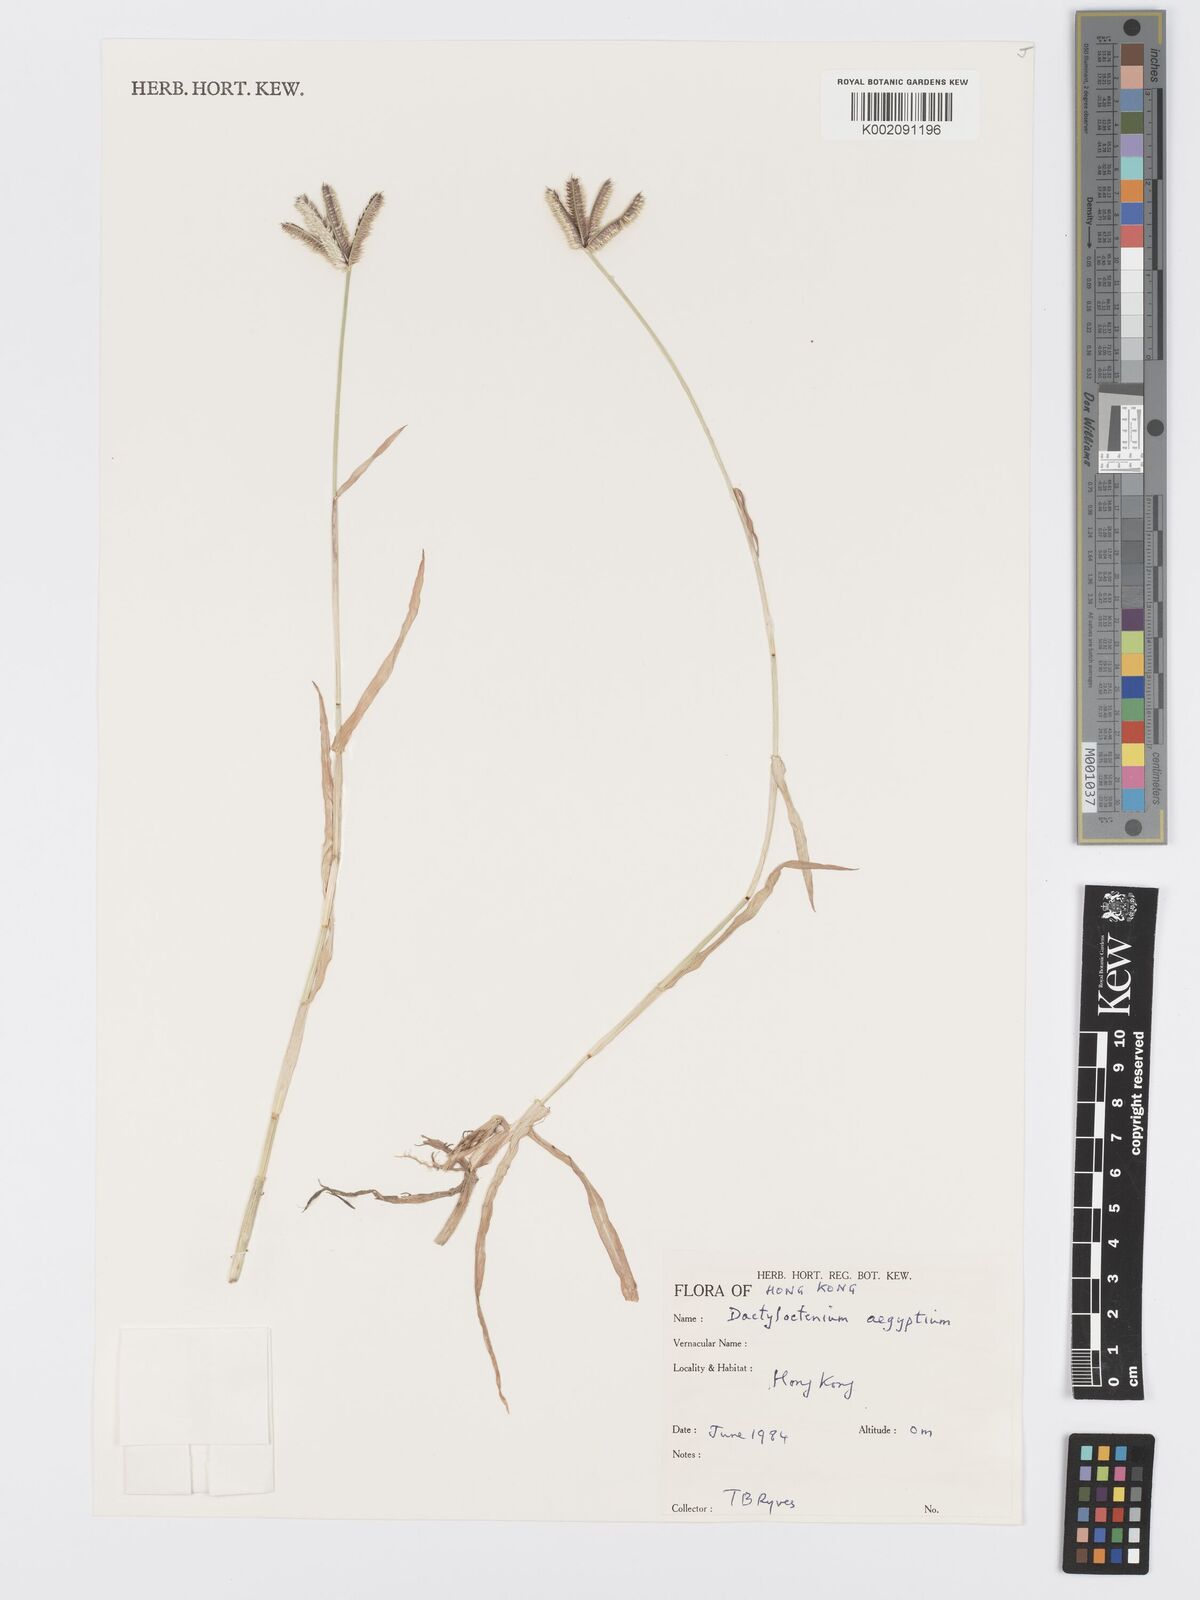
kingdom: Plantae
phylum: Tracheophyta
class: Liliopsida
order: Poales
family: Poaceae
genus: Dactyloctenium
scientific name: Dactyloctenium aegyptium
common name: Egyptian grass
